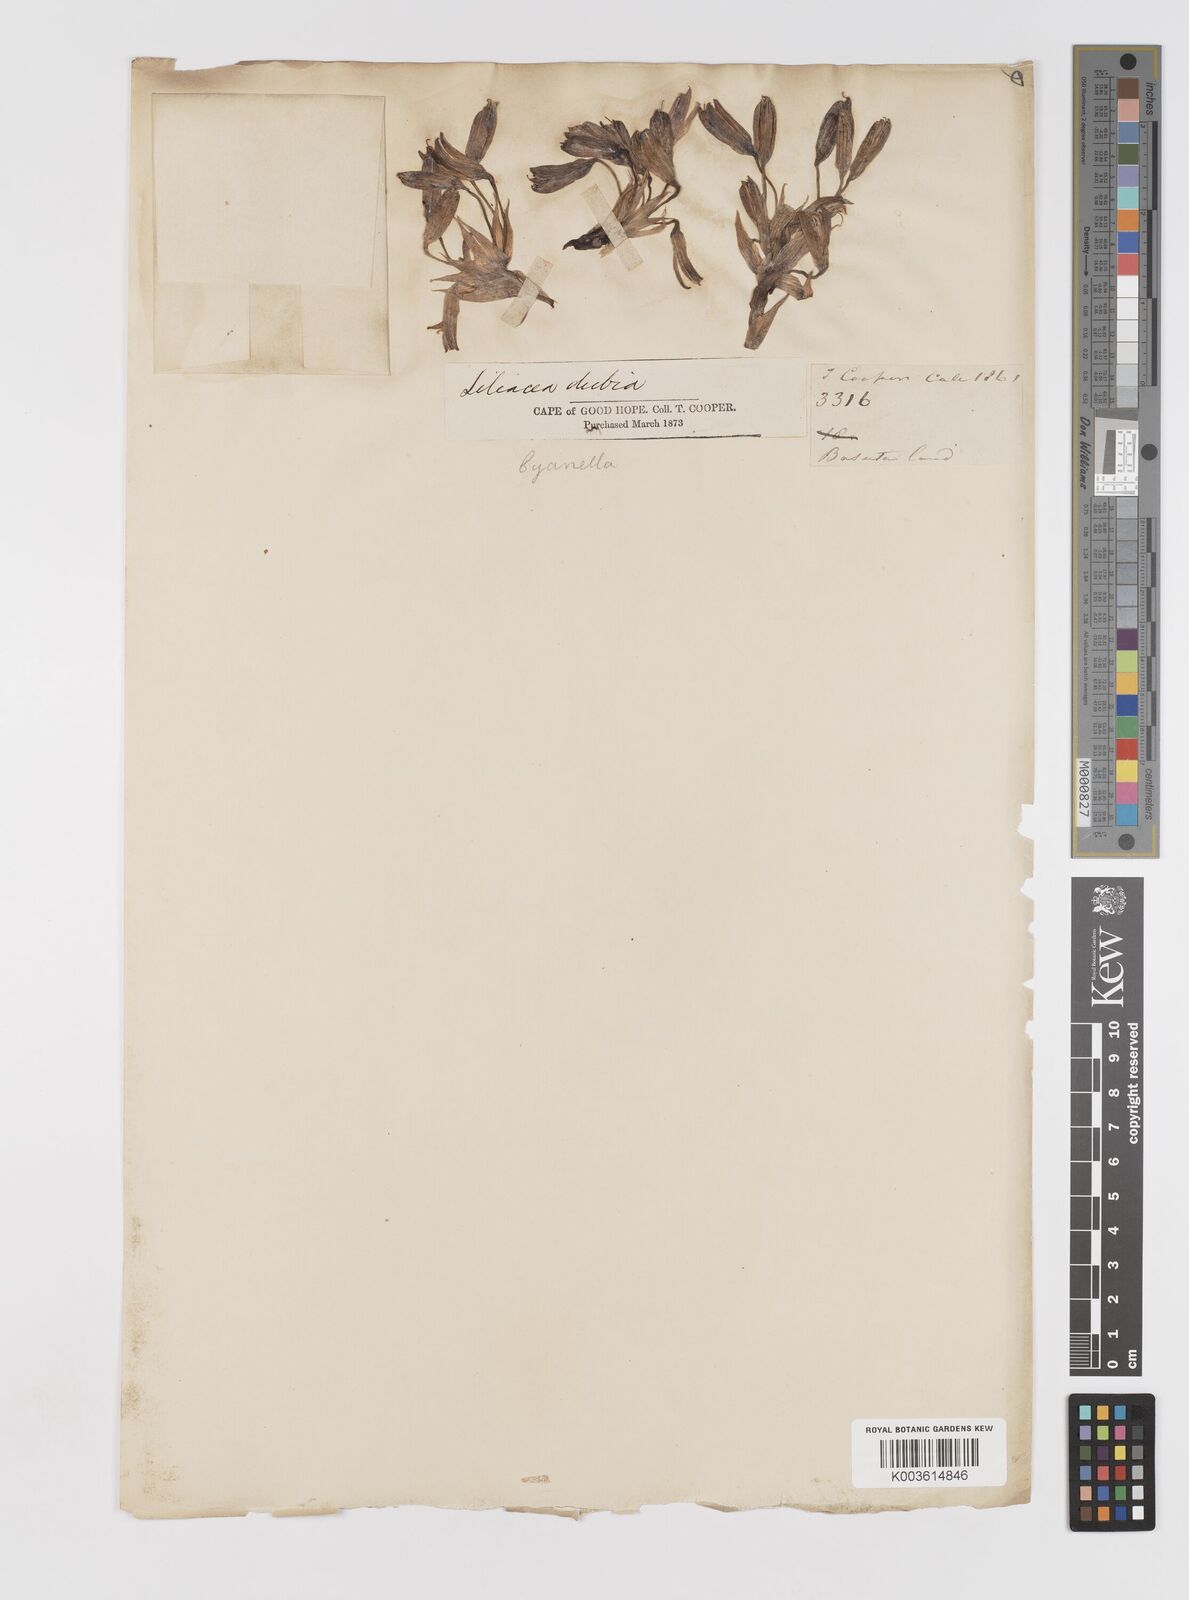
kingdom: Plantae
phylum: Tracheophyta
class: Liliopsida
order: Asparagales
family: Tecophilaeaceae
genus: Cyanella
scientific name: Cyanella
